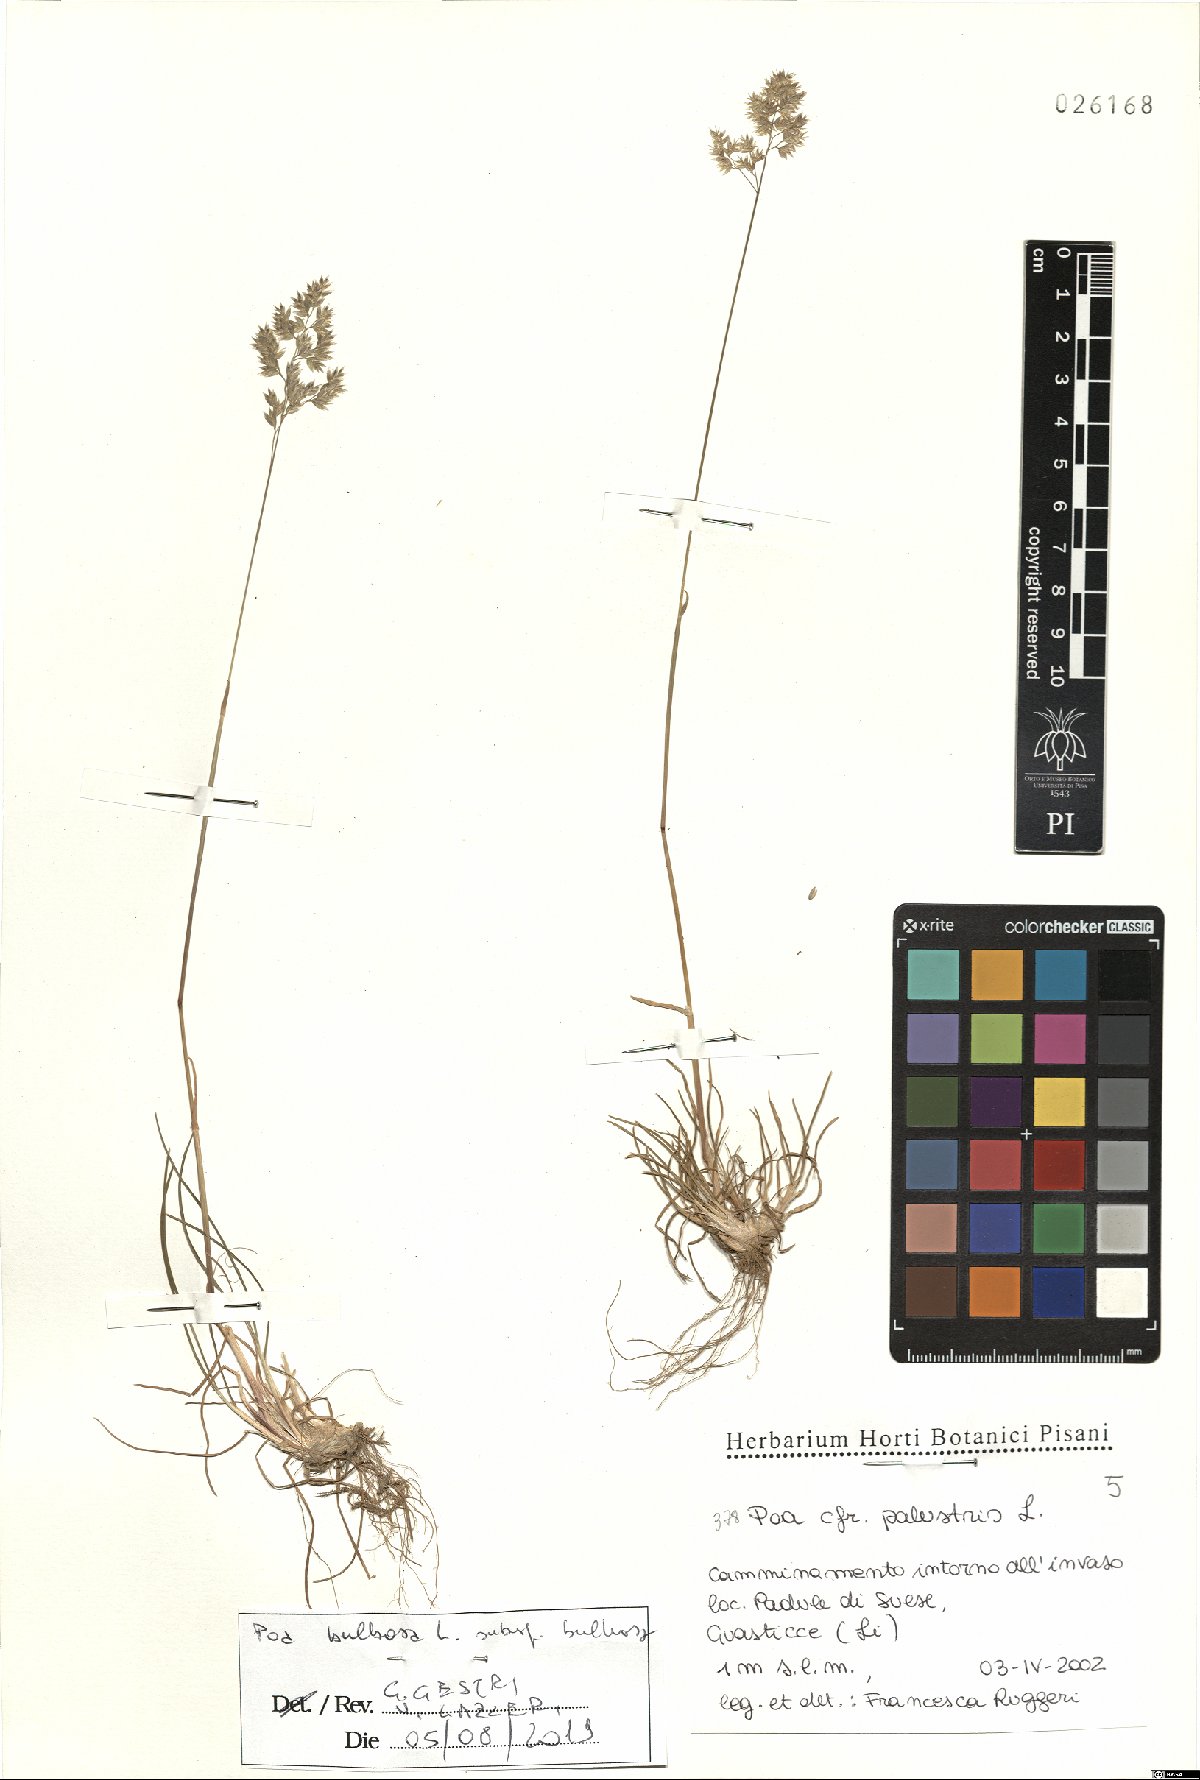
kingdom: Plantae
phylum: Tracheophyta
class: Liliopsida
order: Poales
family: Poaceae
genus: Poa
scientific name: Poa bulbosa
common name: Bulbous bluegrass
